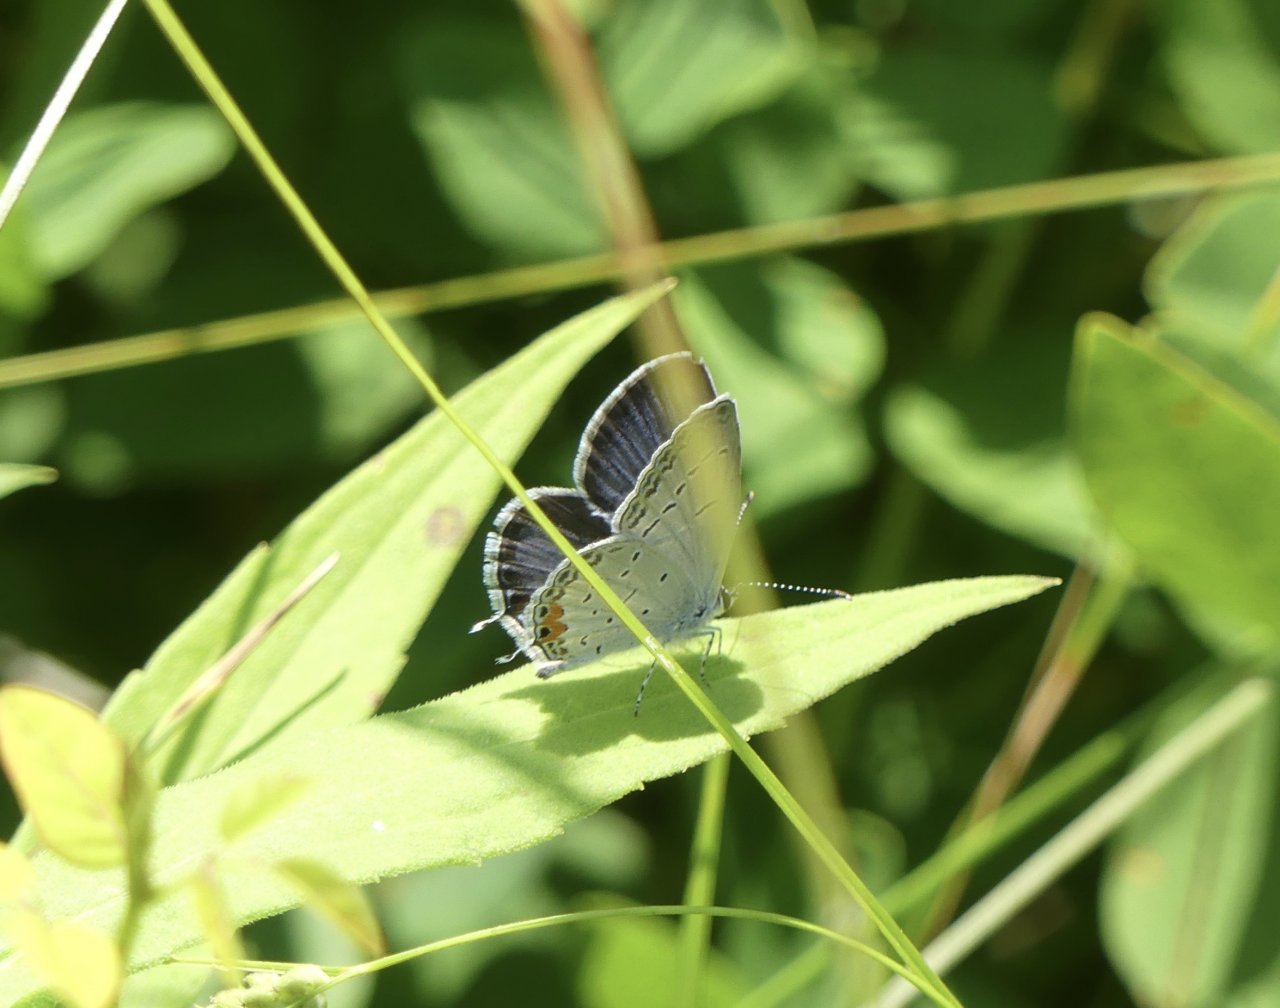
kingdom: Animalia
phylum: Arthropoda
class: Insecta
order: Lepidoptera
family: Lycaenidae
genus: Elkalyce
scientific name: Elkalyce comyntas
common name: Eastern Tailed-Blue
